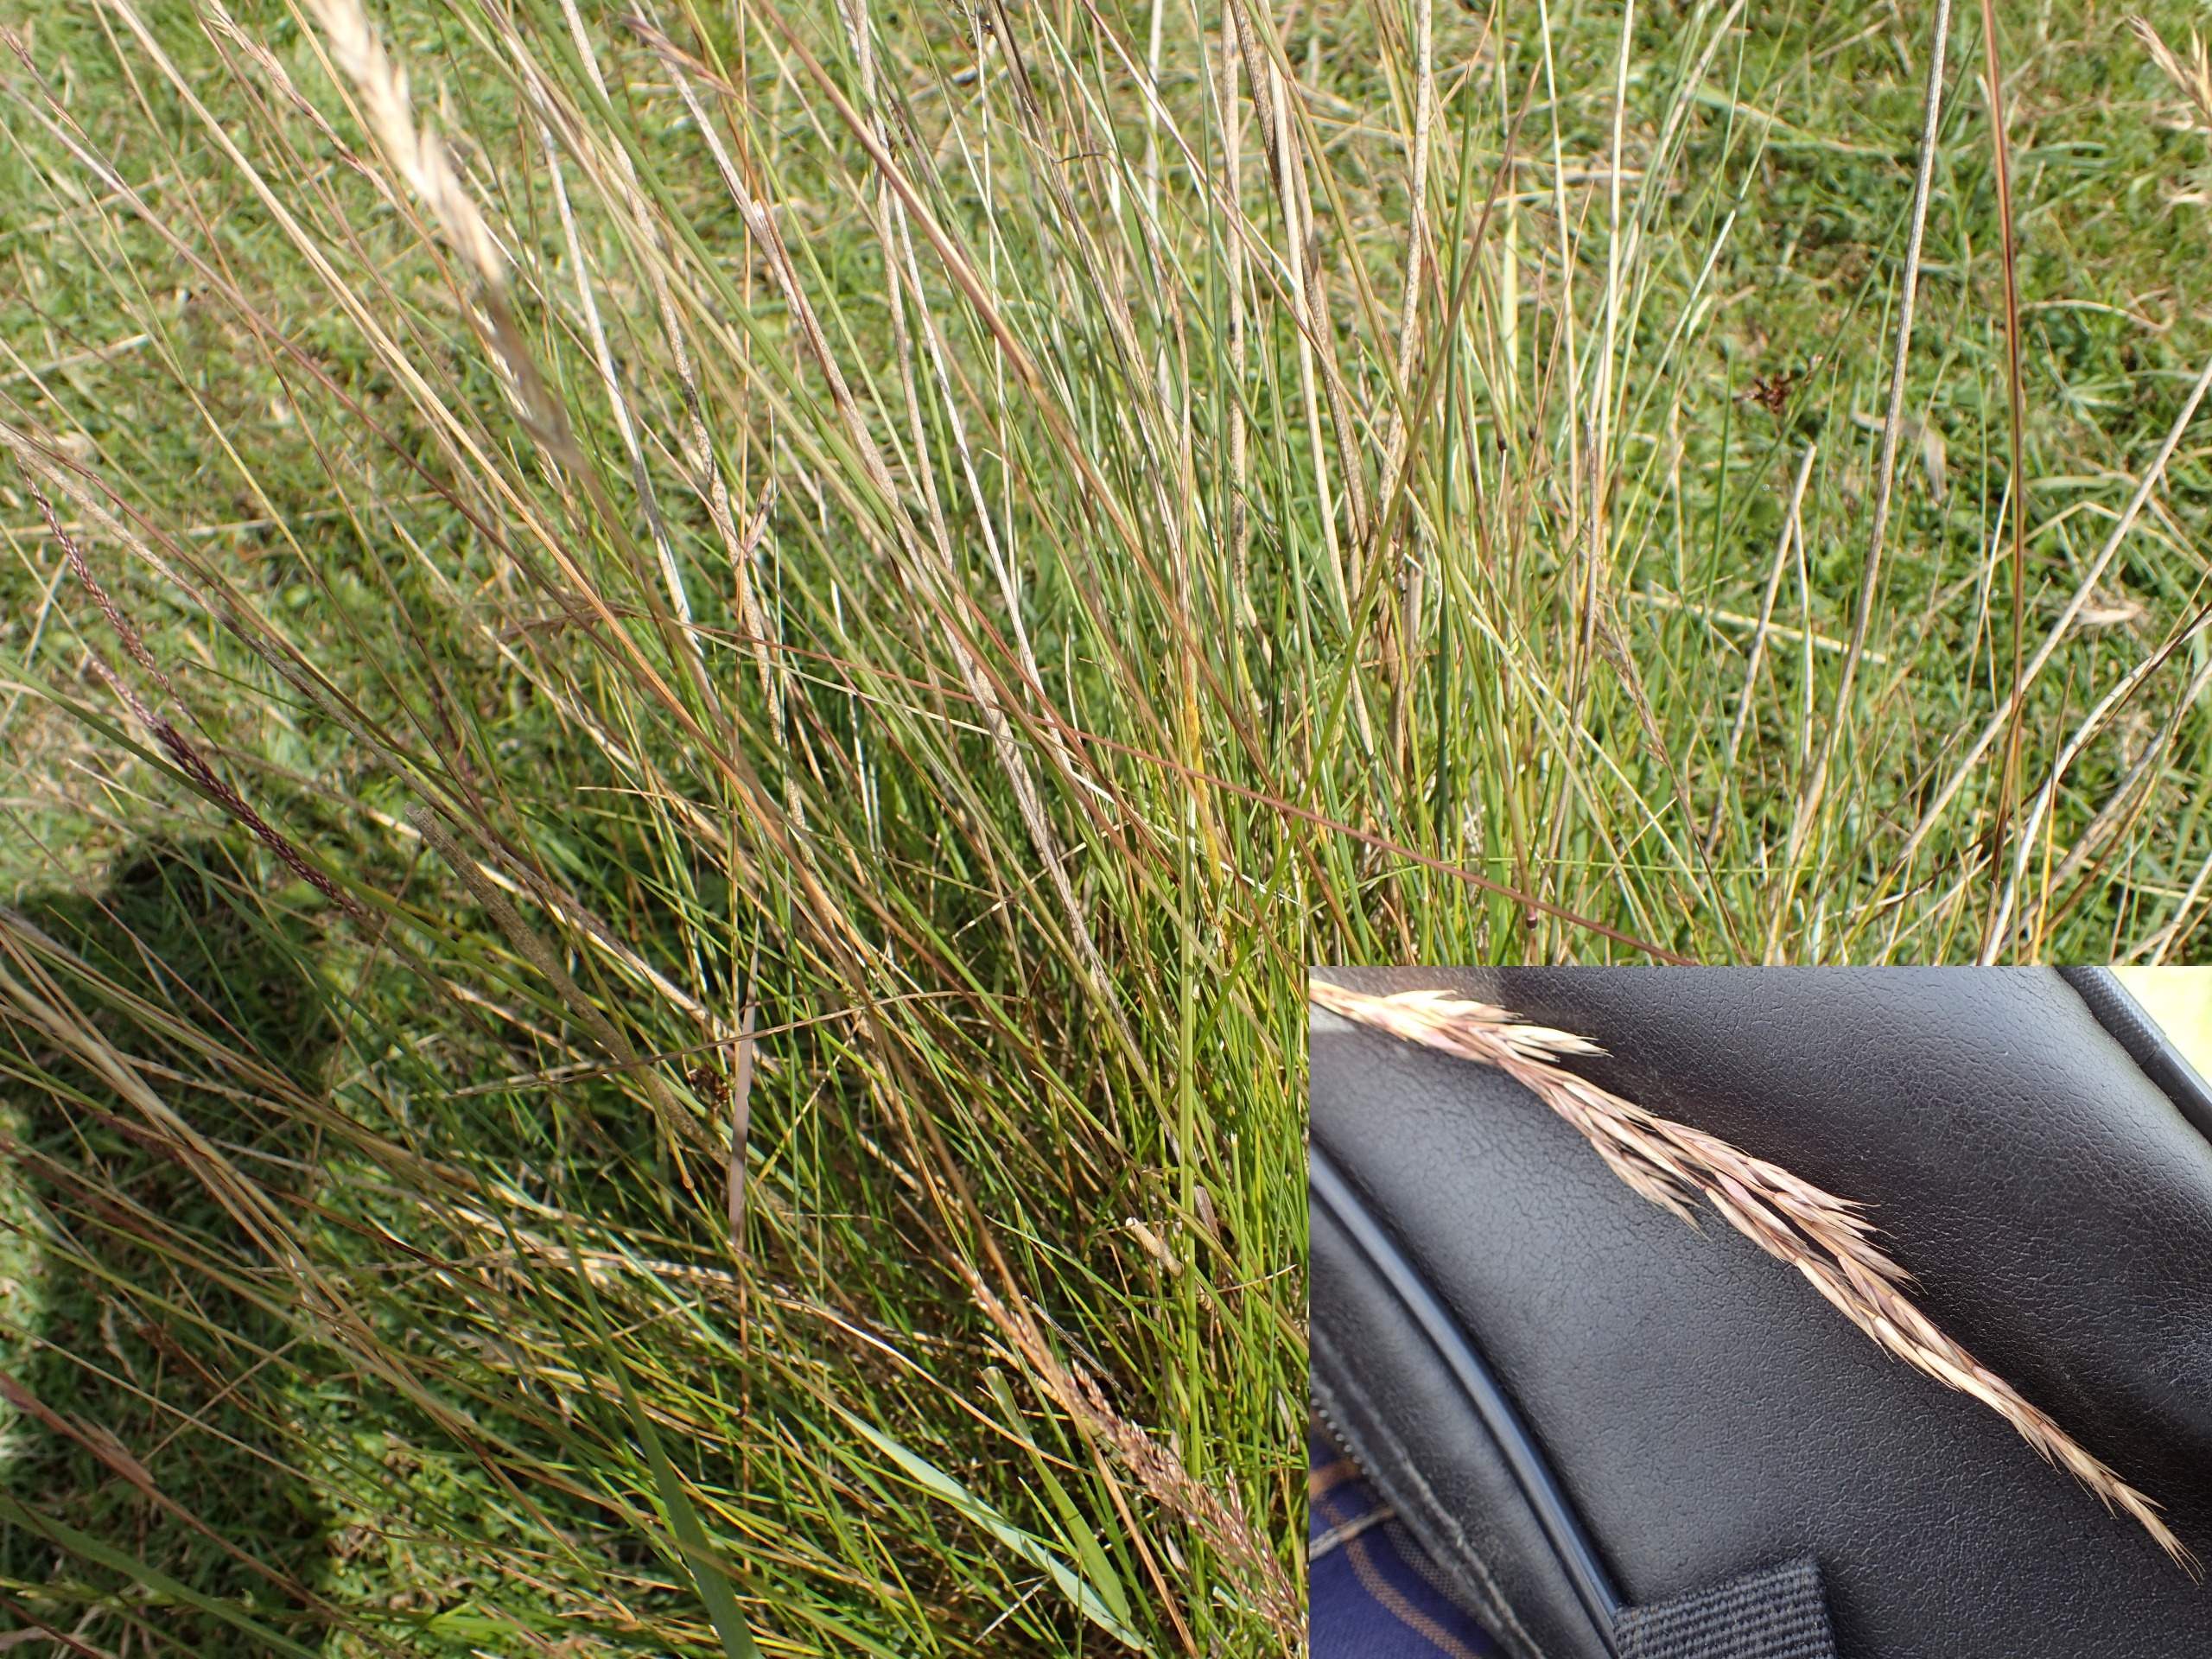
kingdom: Plantae
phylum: Tracheophyta
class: Liliopsida
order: Poales
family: Poaceae
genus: Festuca
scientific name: Festuca rubra
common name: Rød svingel
